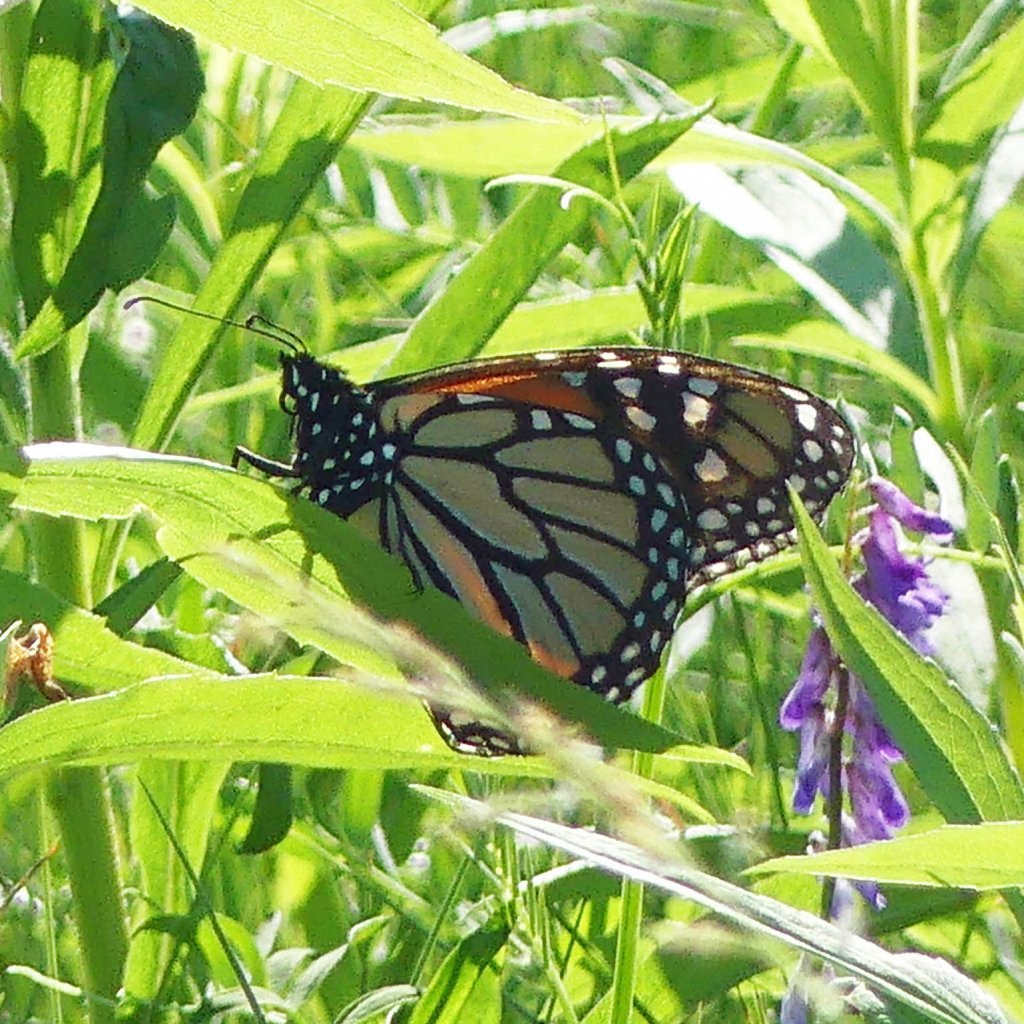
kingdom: Animalia
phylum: Arthropoda
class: Insecta
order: Lepidoptera
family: Nymphalidae
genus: Danaus
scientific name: Danaus plexippus
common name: Monarch
